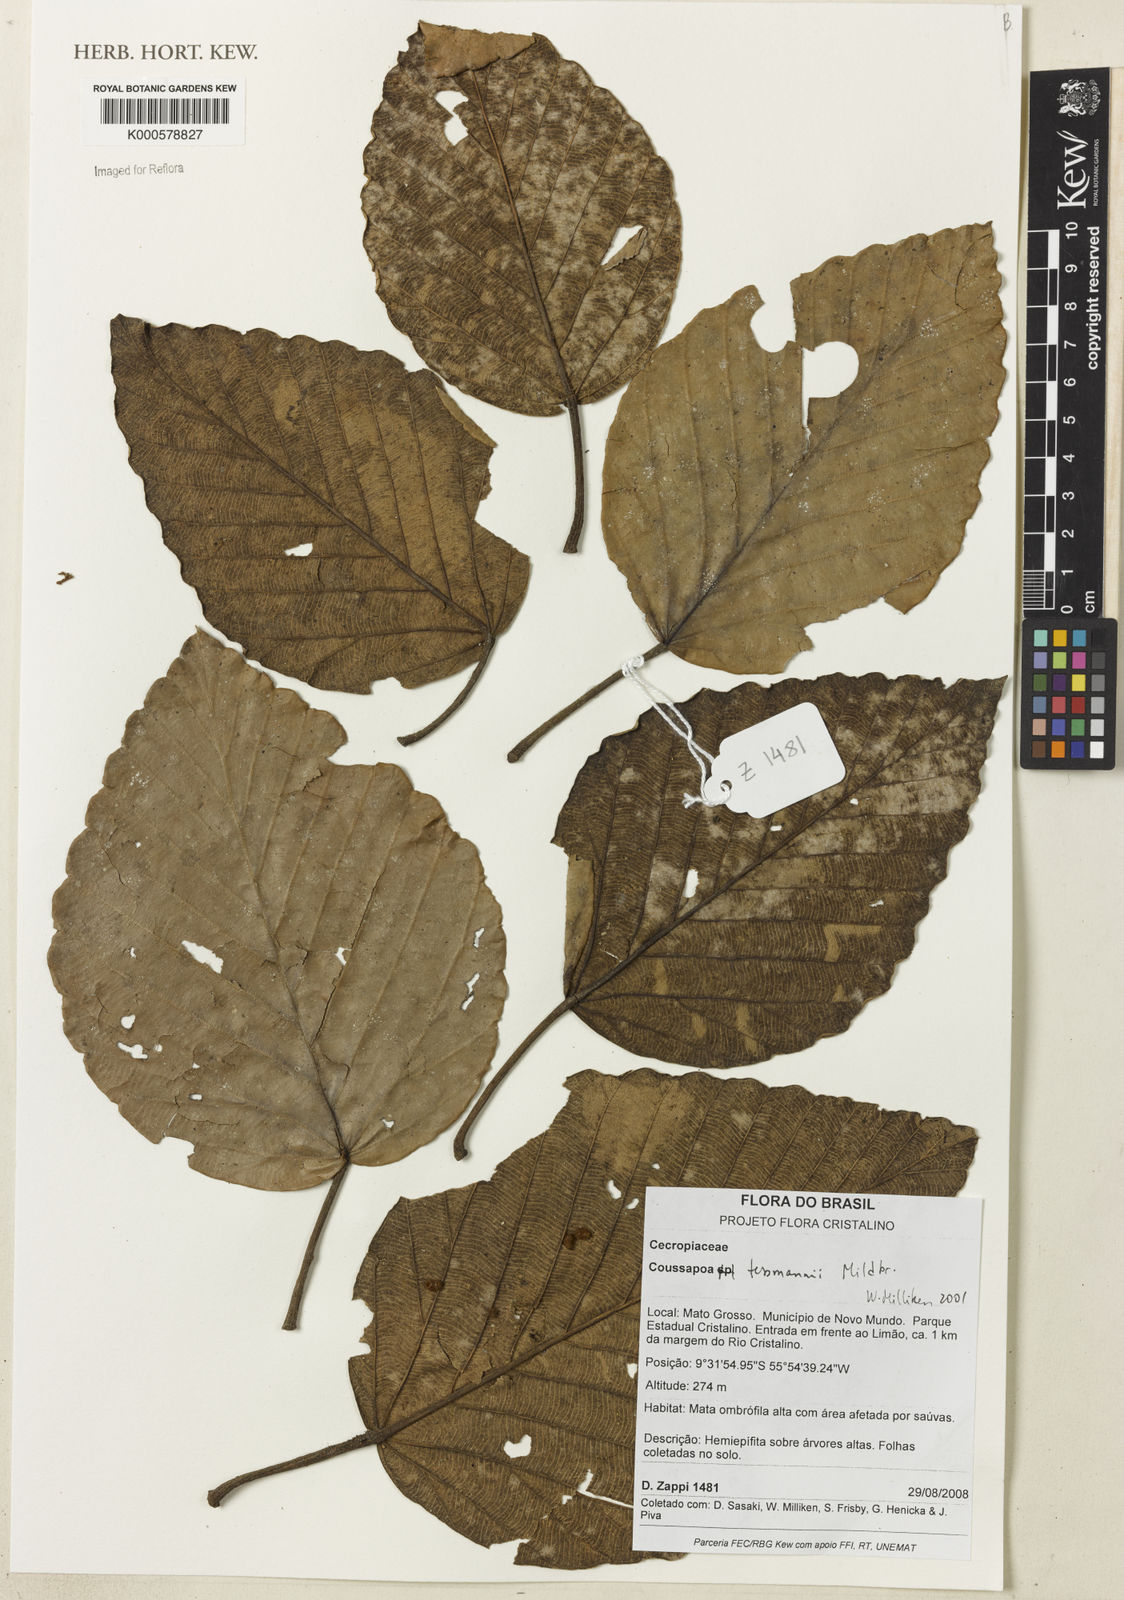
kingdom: Plantae
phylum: Tracheophyta
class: Magnoliopsida
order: Rosales
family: Urticaceae
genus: Coussapoa
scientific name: Coussapoa tessmannii
